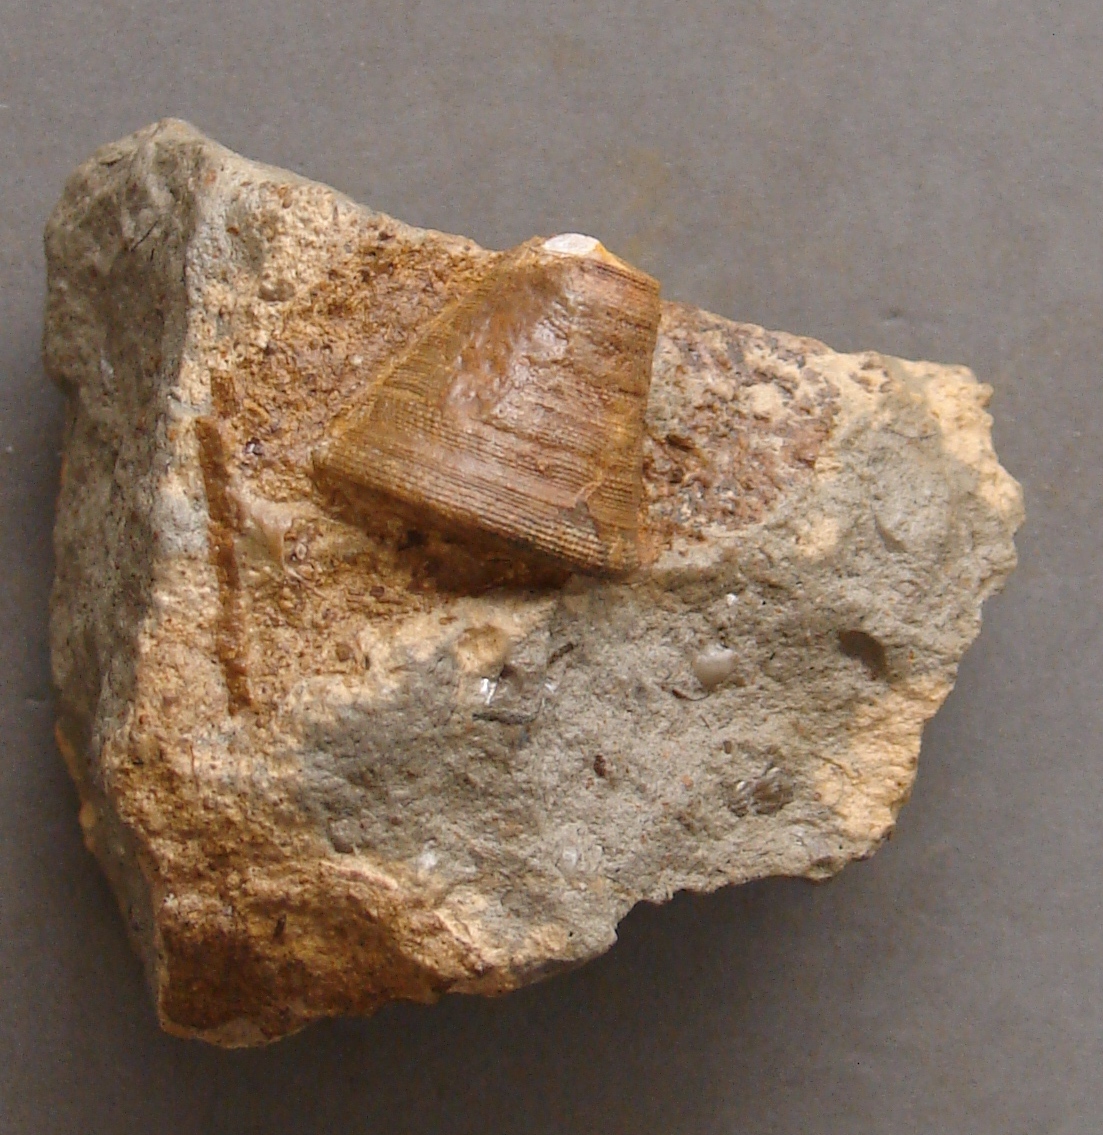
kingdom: Animalia
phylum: Mollusca
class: Gastropoda
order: Pleurotomariida
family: Pleurotomariidae
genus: Leptomaria
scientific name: Leptomaria Trochus punctatus
